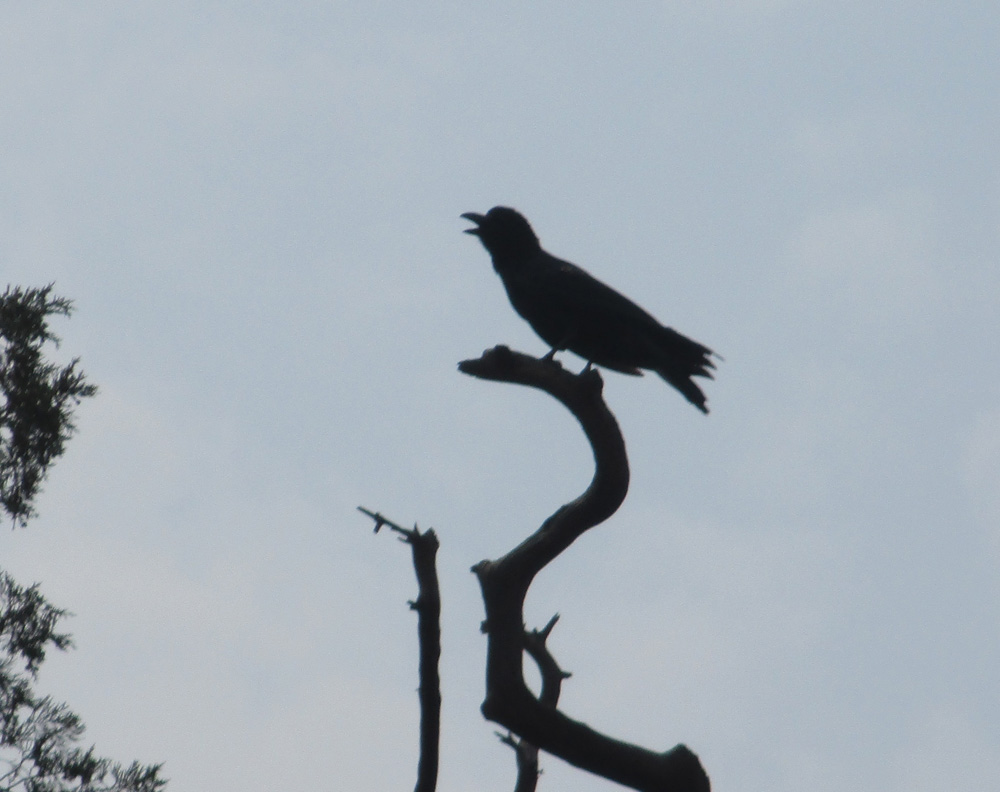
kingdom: Animalia
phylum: Chordata
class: Aves
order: Passeriformes
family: Corvidae
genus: Corvus
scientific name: Corvus macrorhynchos
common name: Large-billed crow
